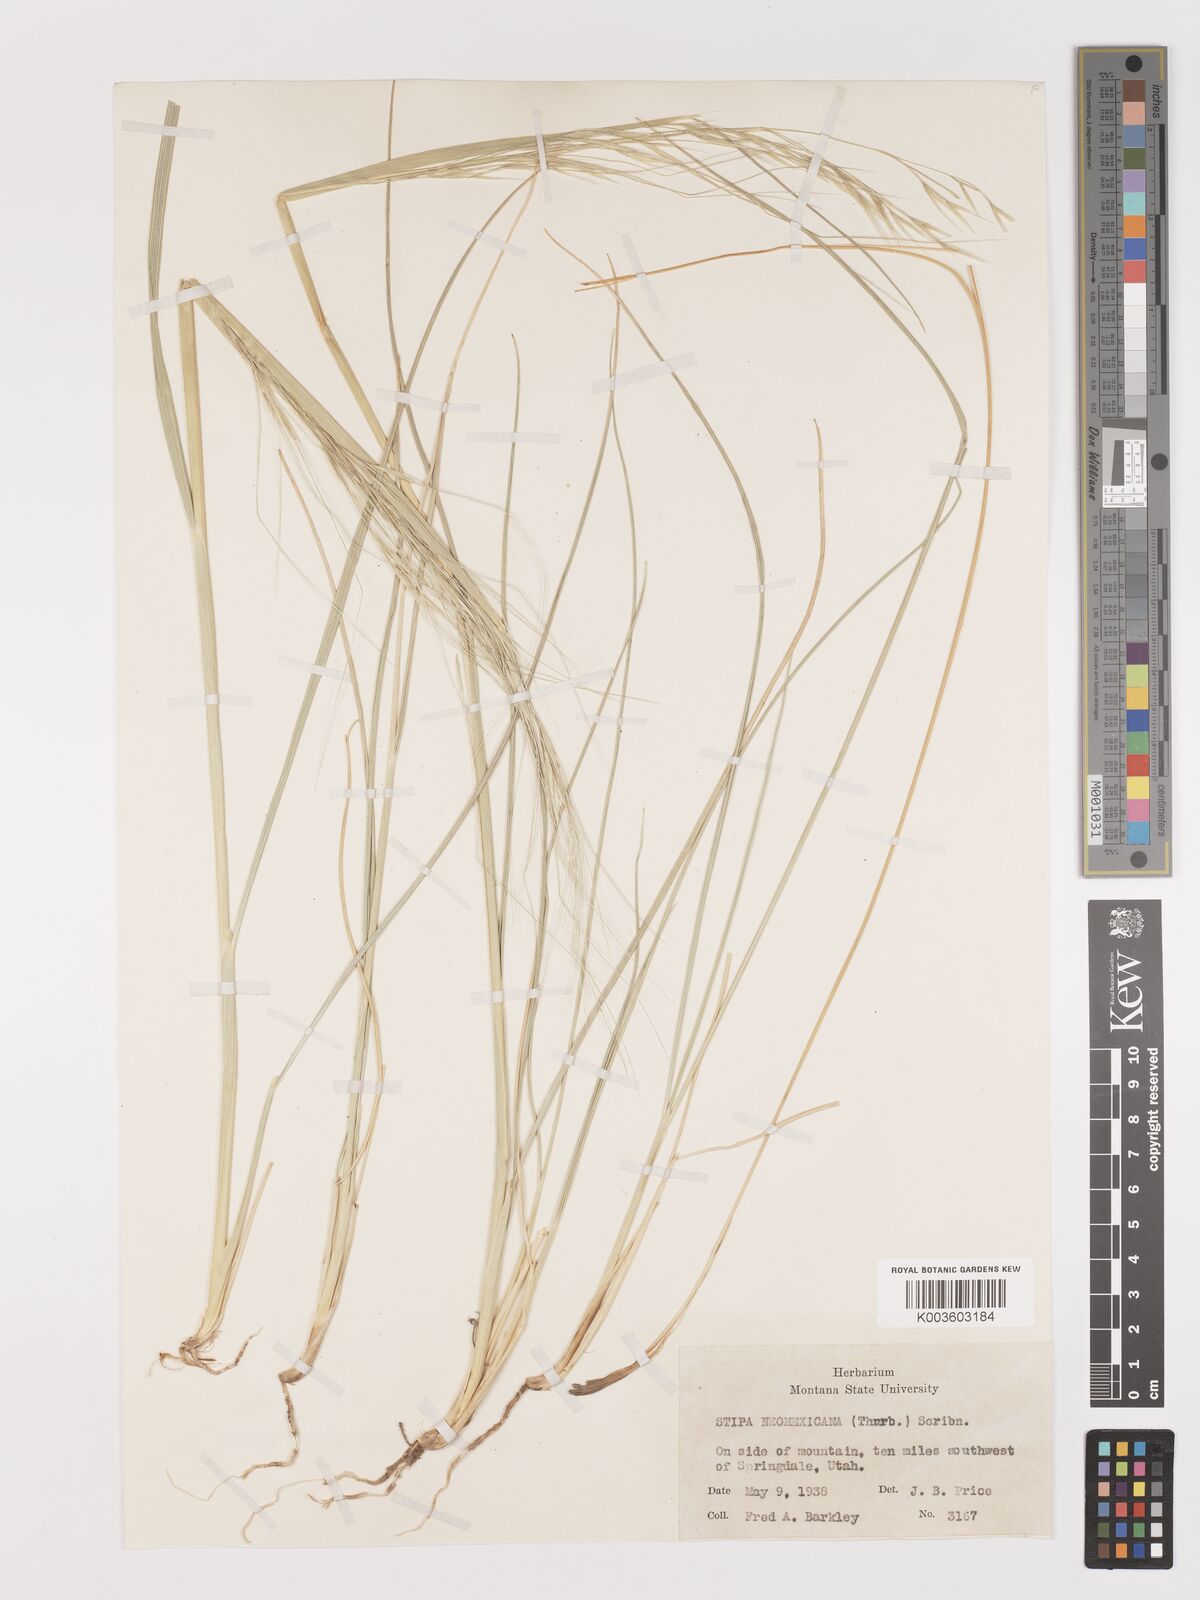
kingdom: Plantae
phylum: Tracheophyta
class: Liliopsida
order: Poales
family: Poaceae
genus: Hesperostipa
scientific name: Hesperostipa neomexicana
